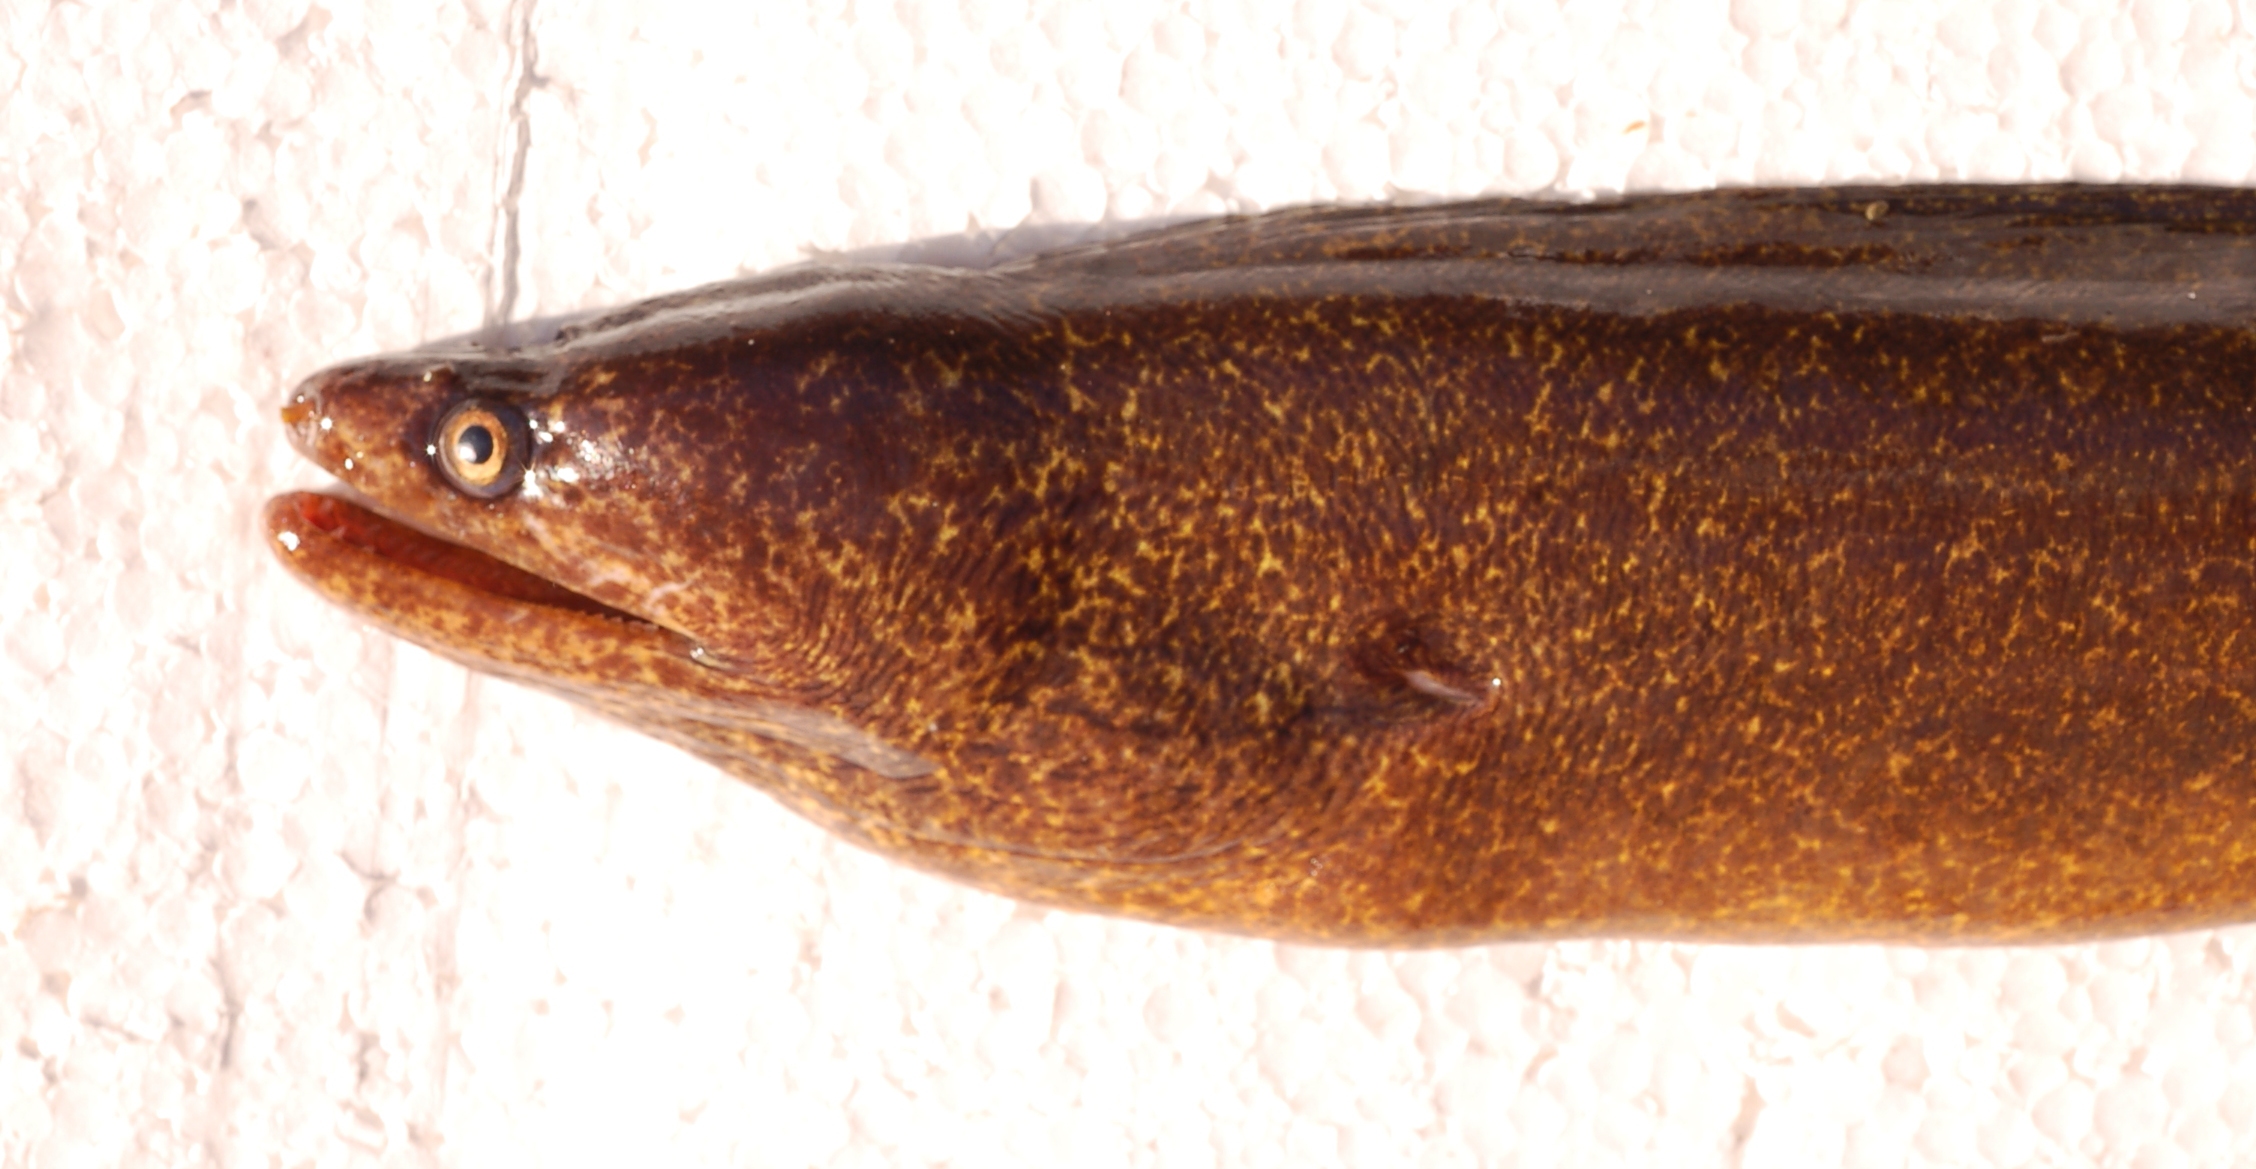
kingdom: Animalia
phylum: Chordata
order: Anguilliformes
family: Muraenidae
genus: Gymnothorax
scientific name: Gymnothorax undulatus
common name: Leopard moray
